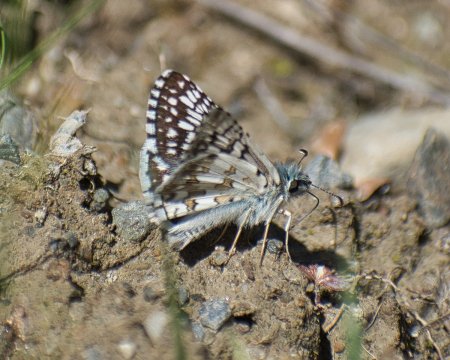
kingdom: Animalia
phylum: Arthropoda
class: Insecta
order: Lepidoptera
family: Hesperiidae
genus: Pyrgus
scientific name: Pyrgus communis
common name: Common Checkered-Skipper
